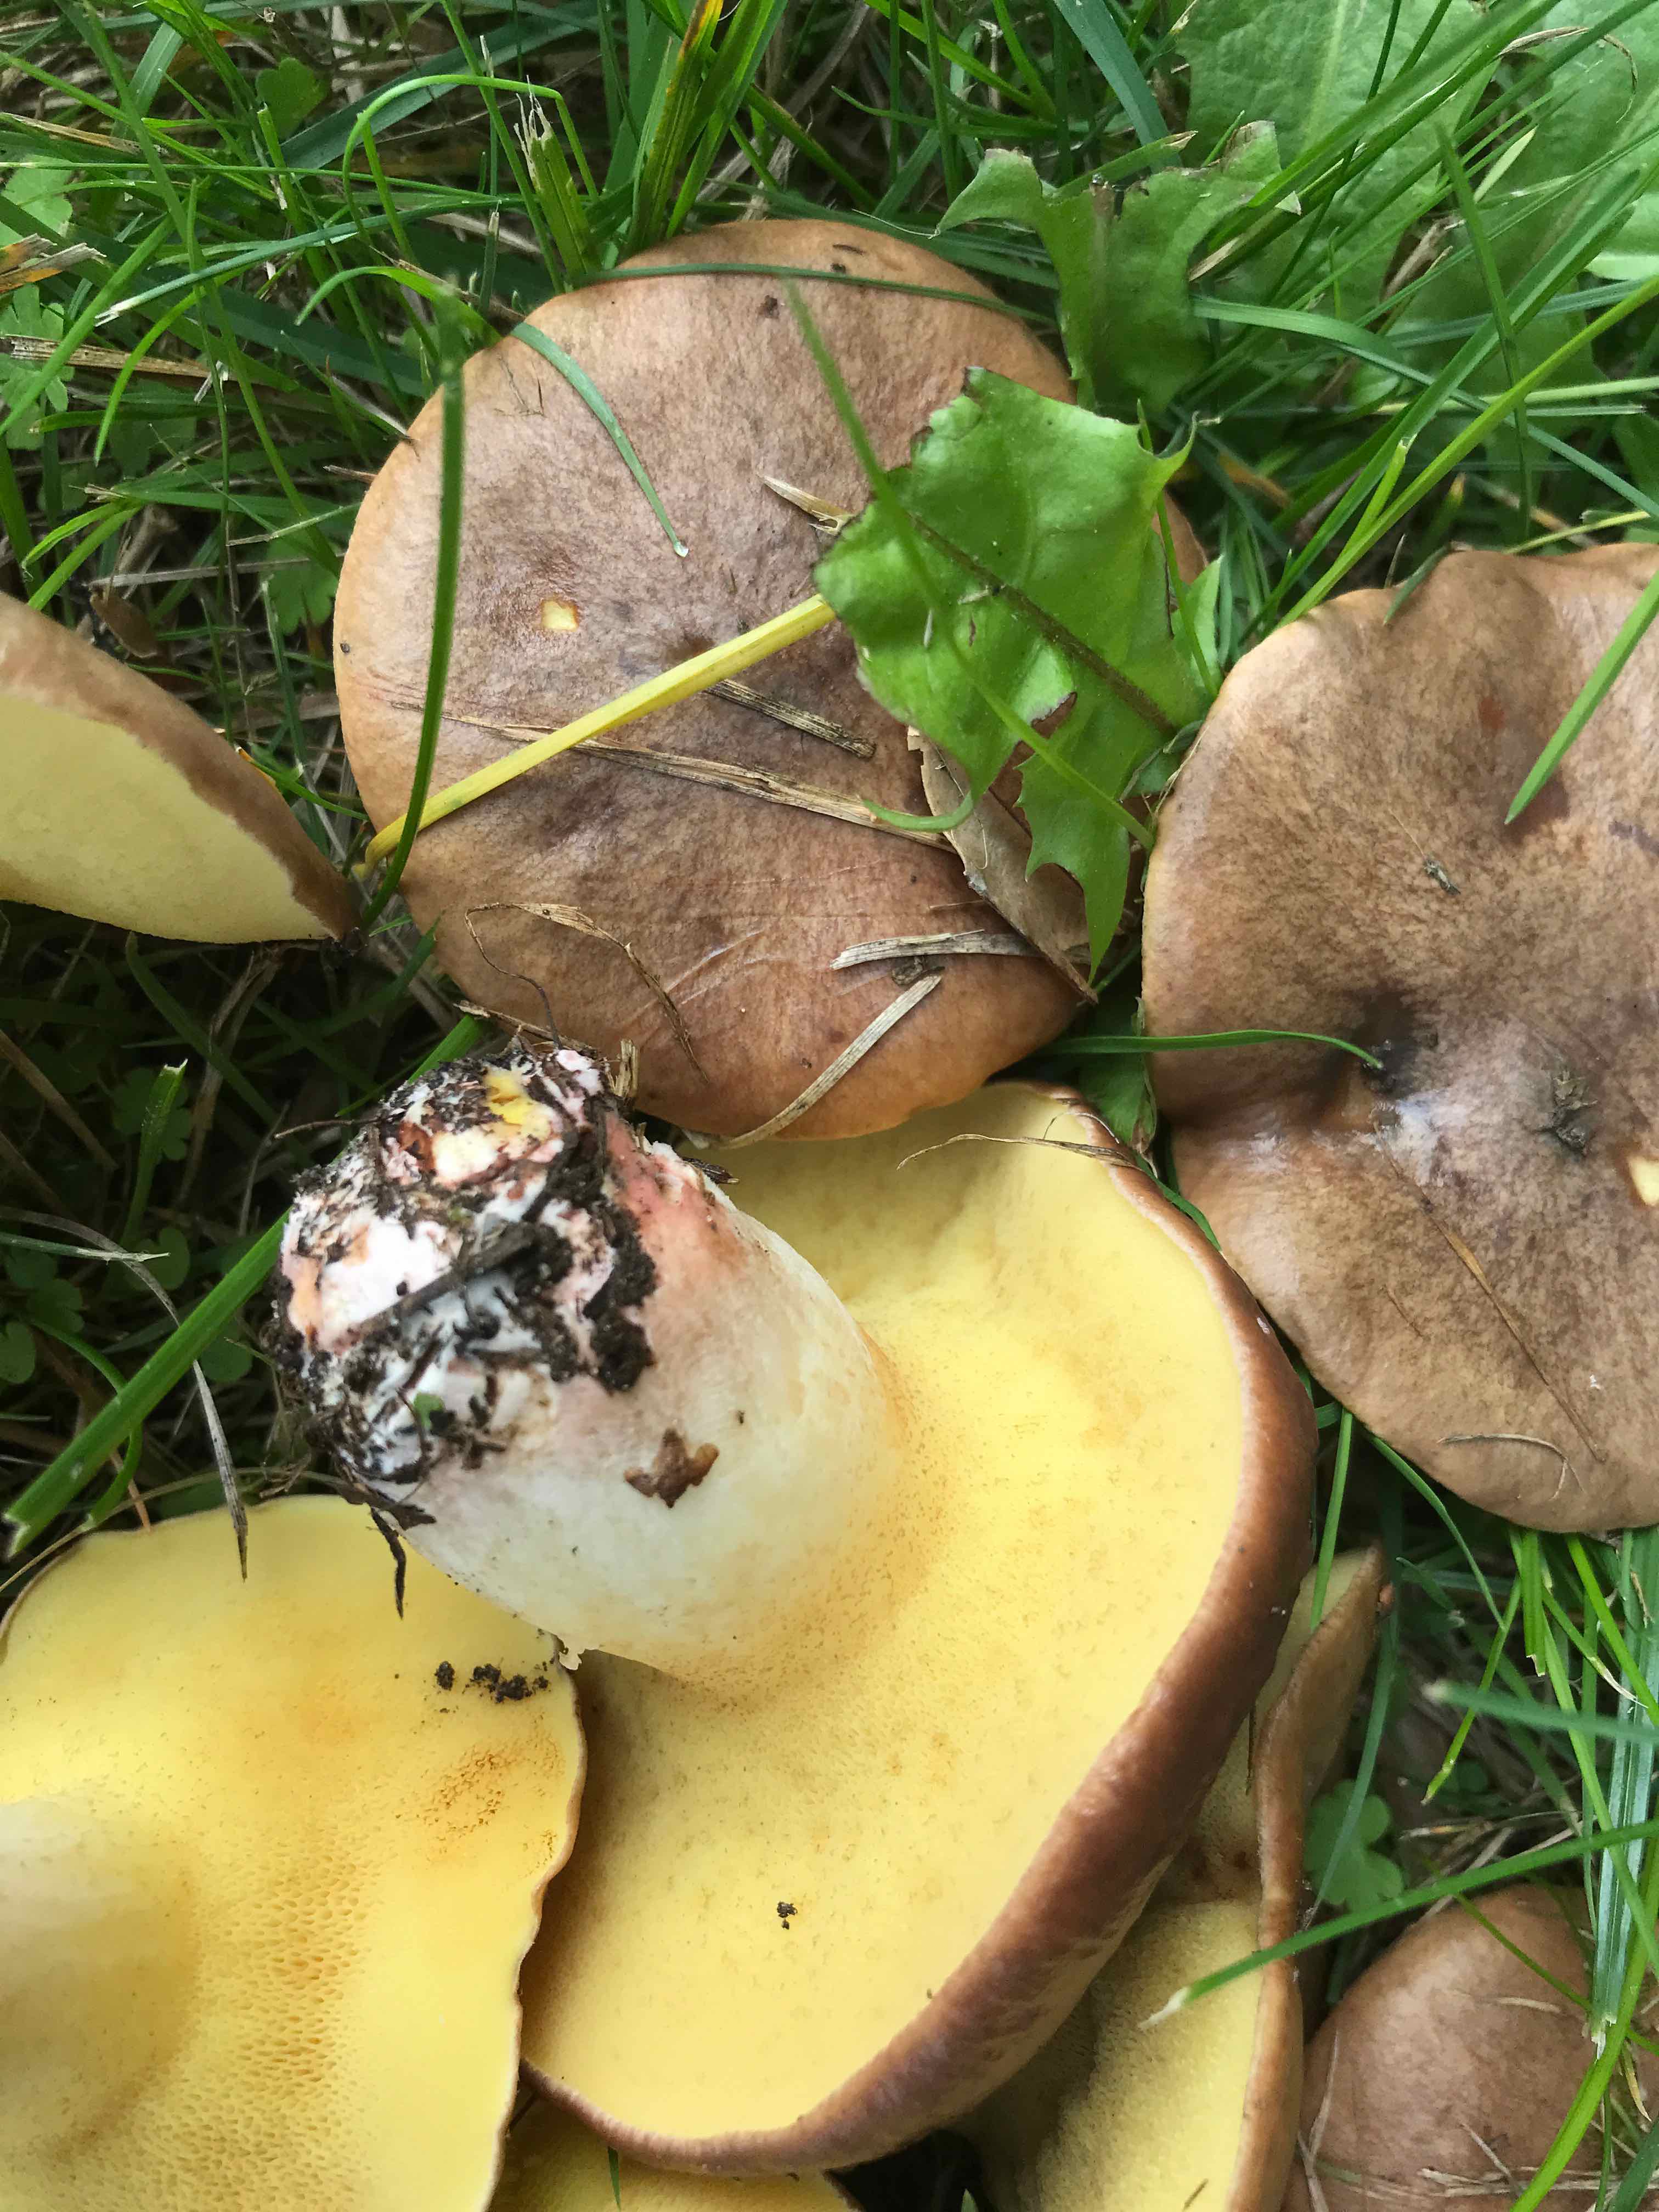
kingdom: Fungi
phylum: Basidiomycota
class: Agaricomycetes
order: Boletales
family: Suillaceae
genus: Suillus
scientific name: Suillus collinitus
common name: rosafodet slimrørhat
